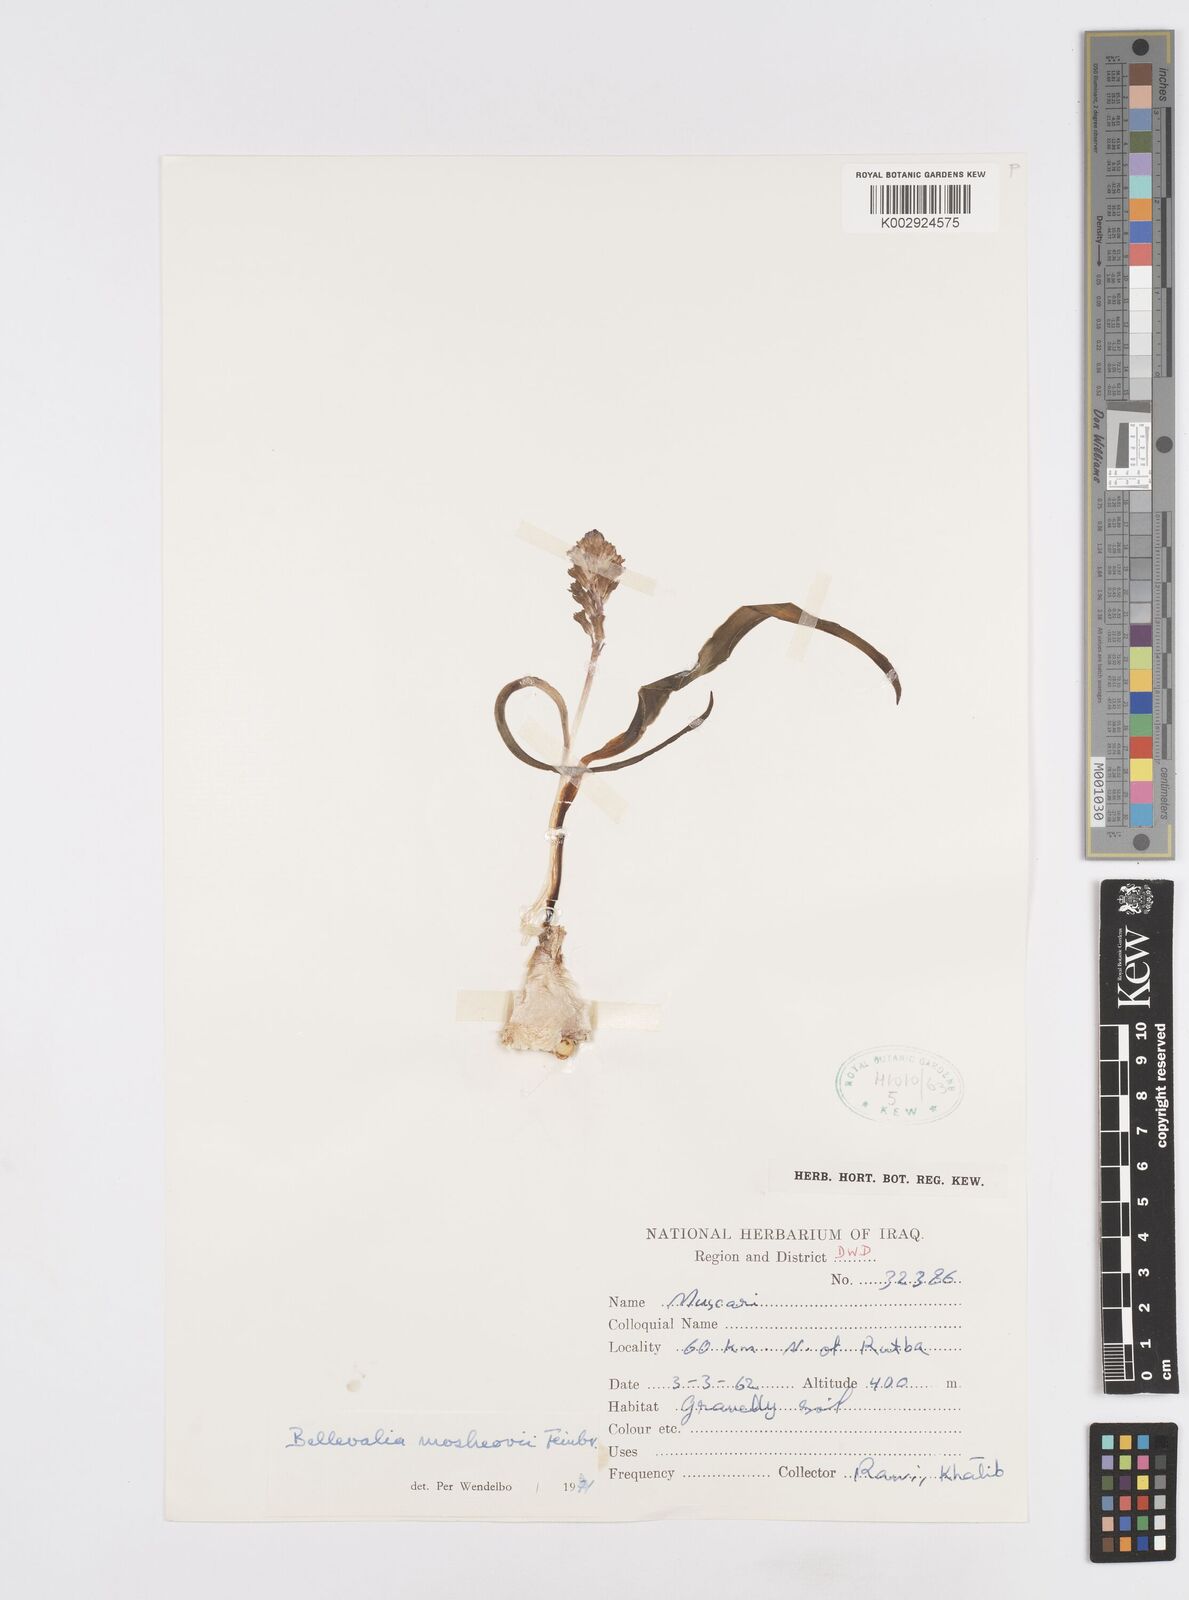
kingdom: Plantae
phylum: Tracheophyta
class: Liliopsida
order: Asparagales
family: Asparagaceae
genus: Bellevalia
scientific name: Bellevalia mosheovii
